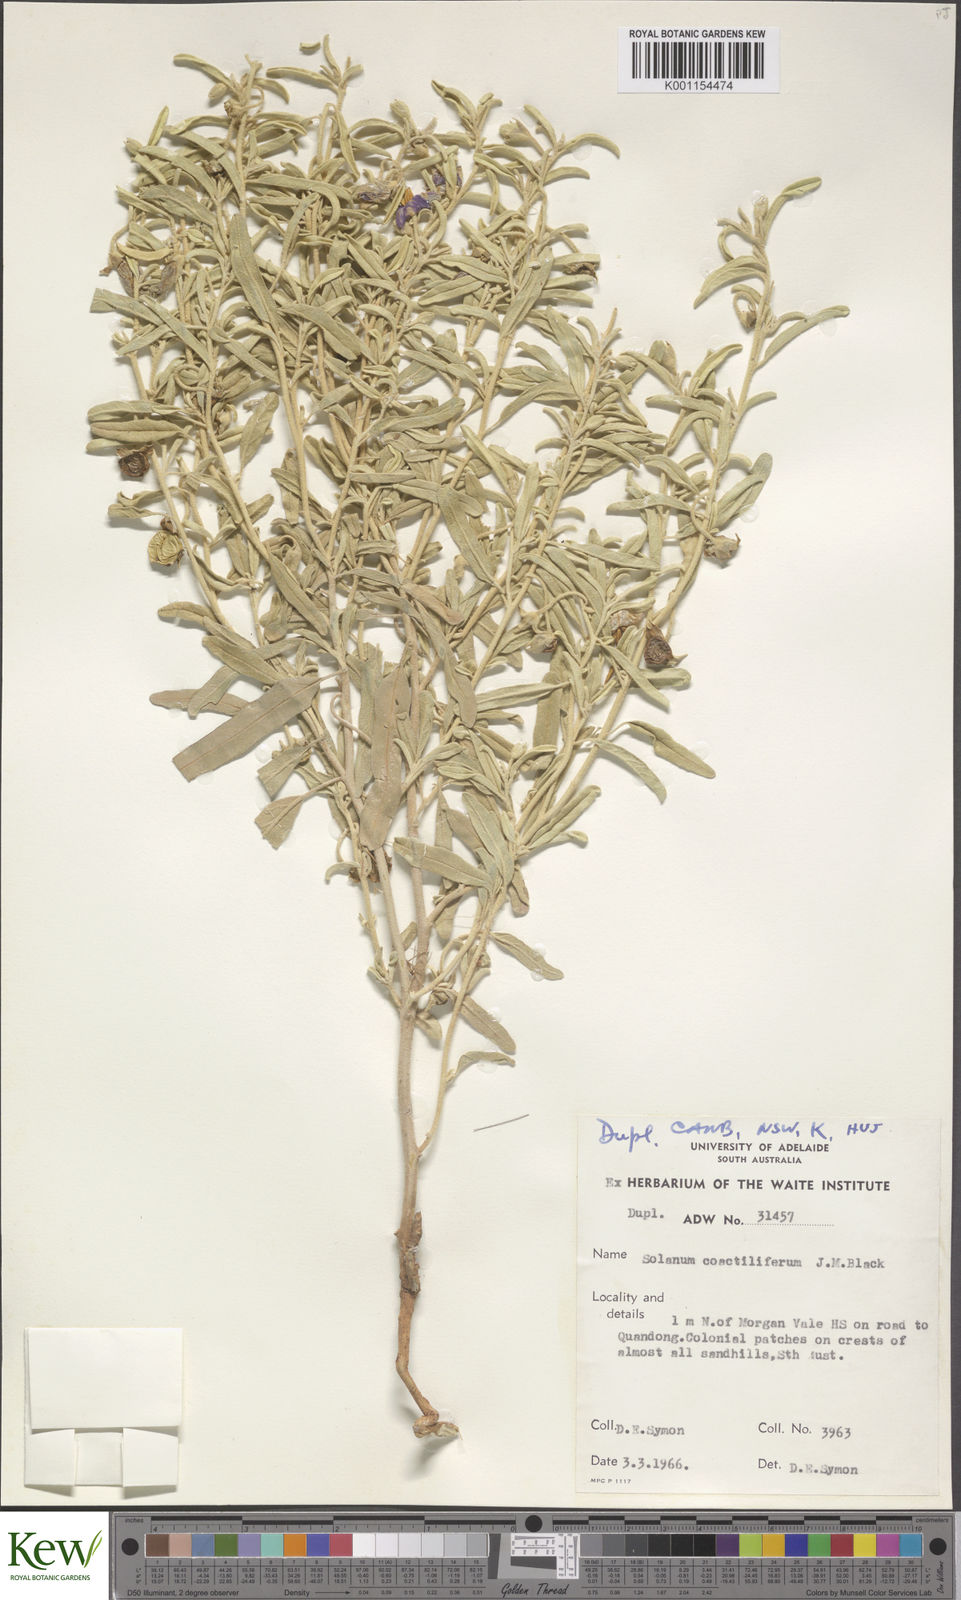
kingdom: Plantae
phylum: Tracheophyta
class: Magnoliopsida
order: Solanales
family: Solanaceae
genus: Solanum
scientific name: Solanum coactiliferum
